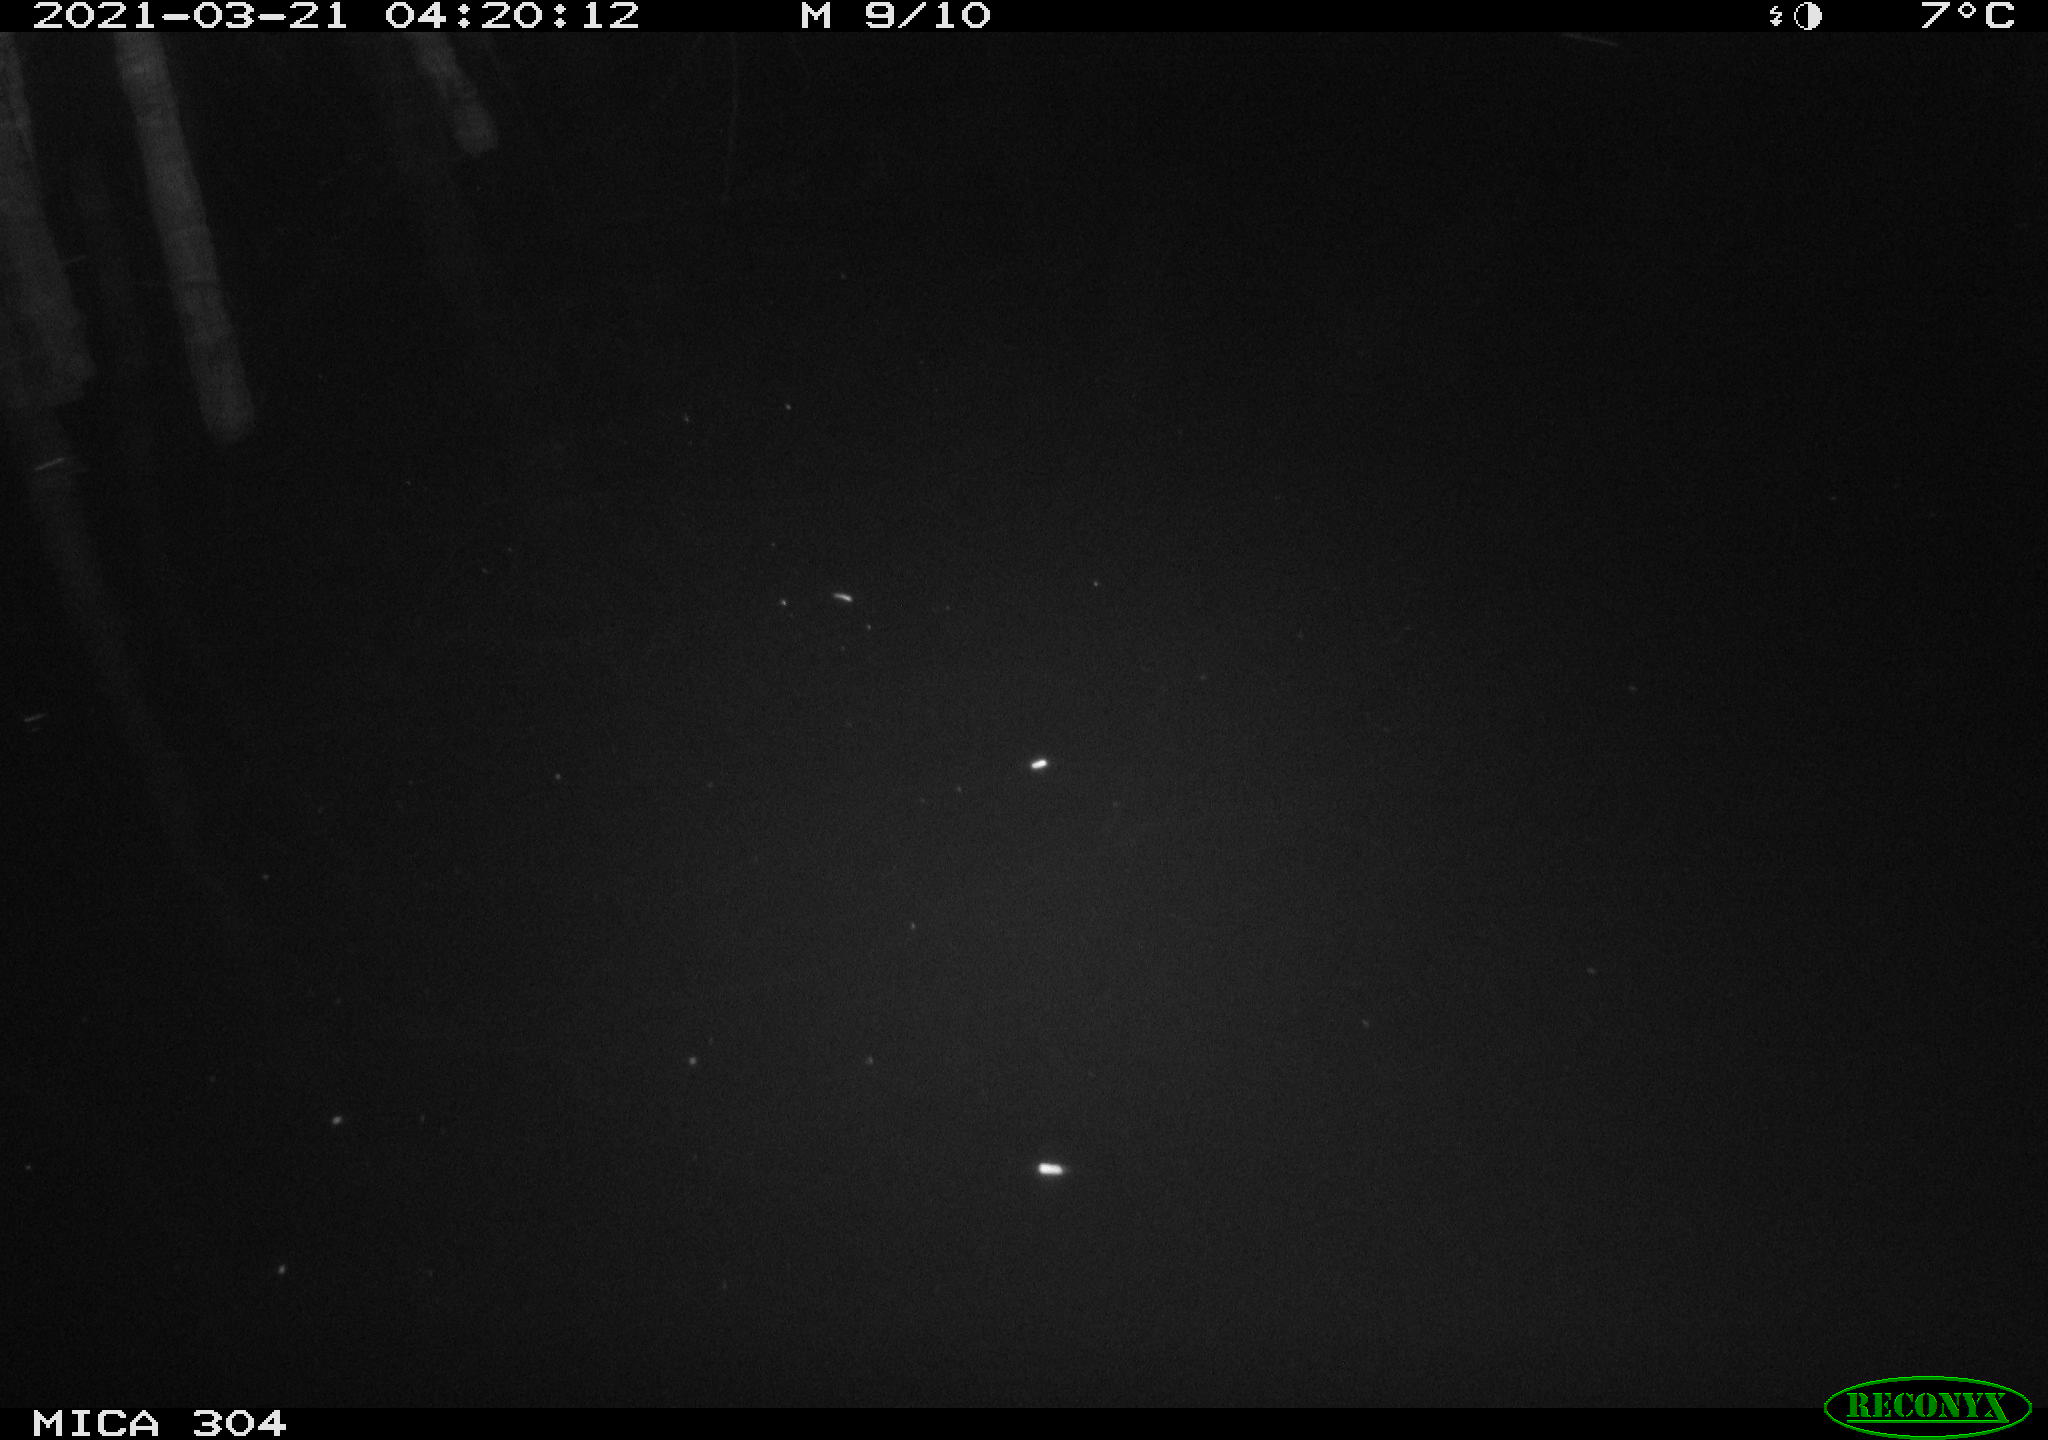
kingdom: Animalia
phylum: Chordata
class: Aves
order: Anseriformes
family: Anatidae
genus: Anas
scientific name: Anas platyrhynchos
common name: Mallard
